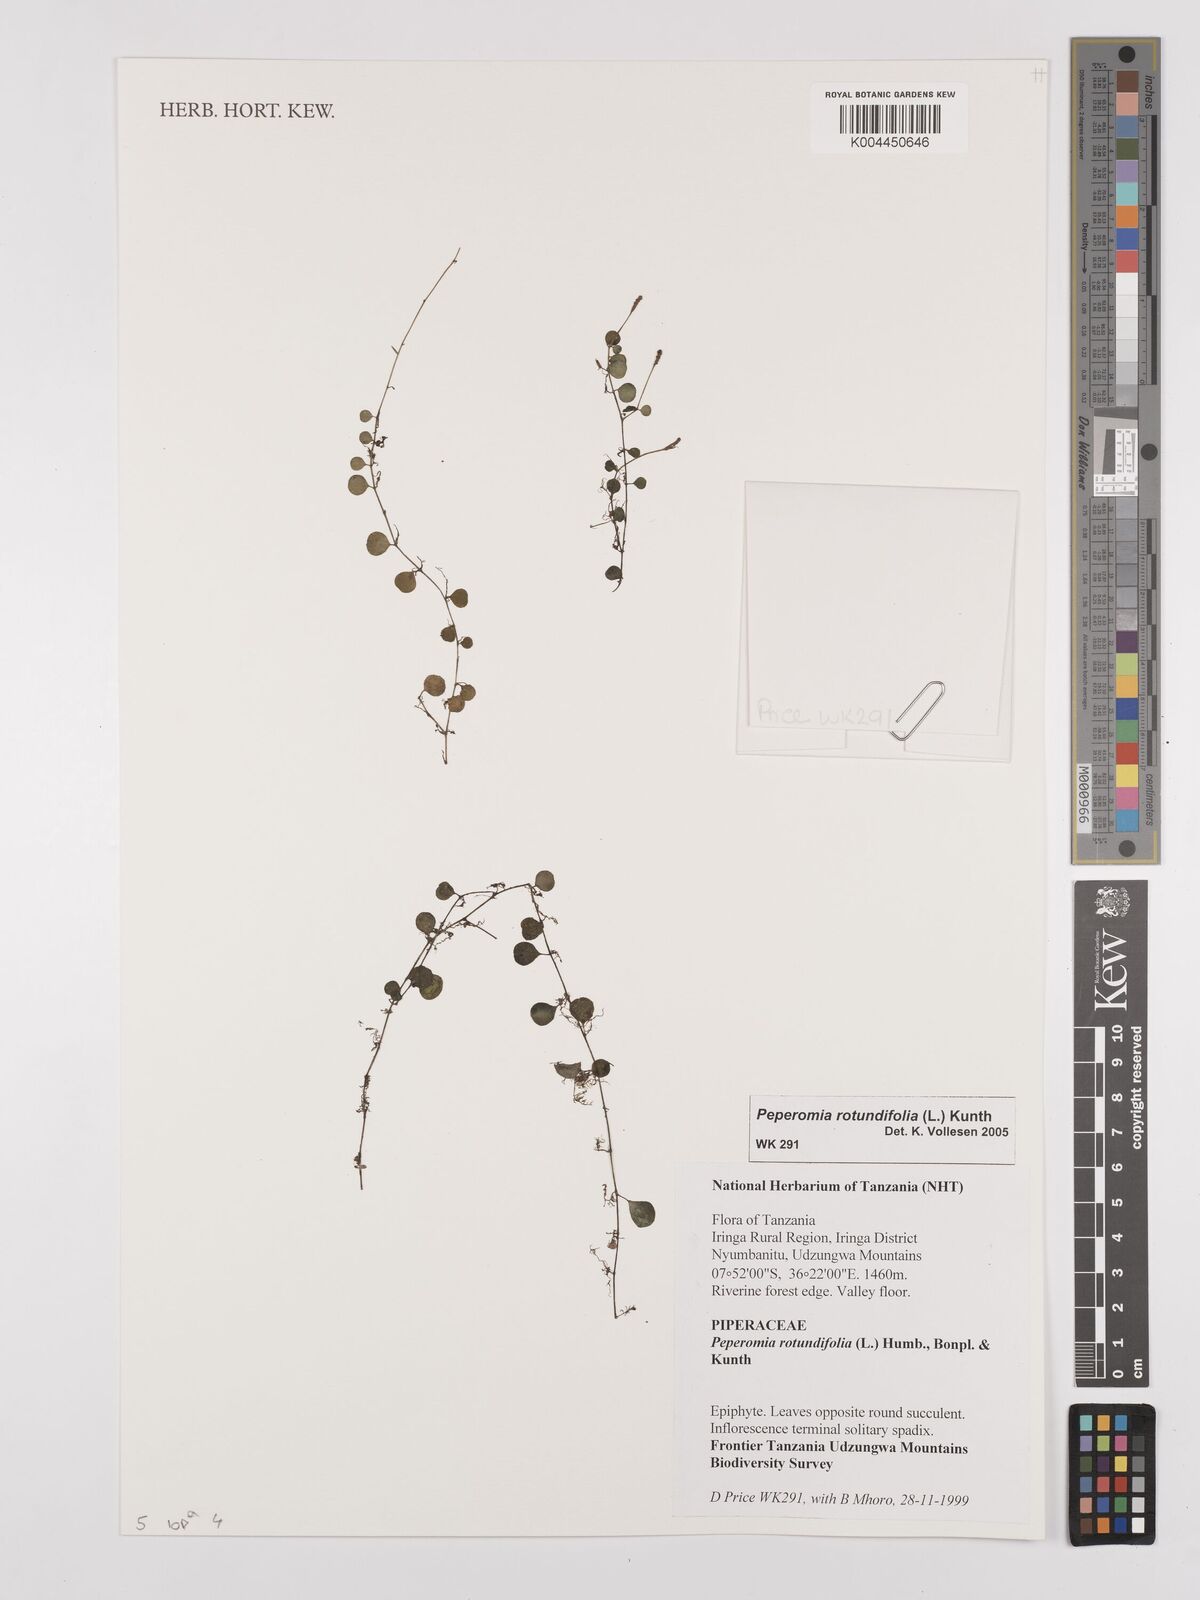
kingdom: Plantae
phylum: Tracheophyta
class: Magnoliopsida
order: Piperales
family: Piperaceae
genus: Peperomia
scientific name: Peperomia rotundifolia
